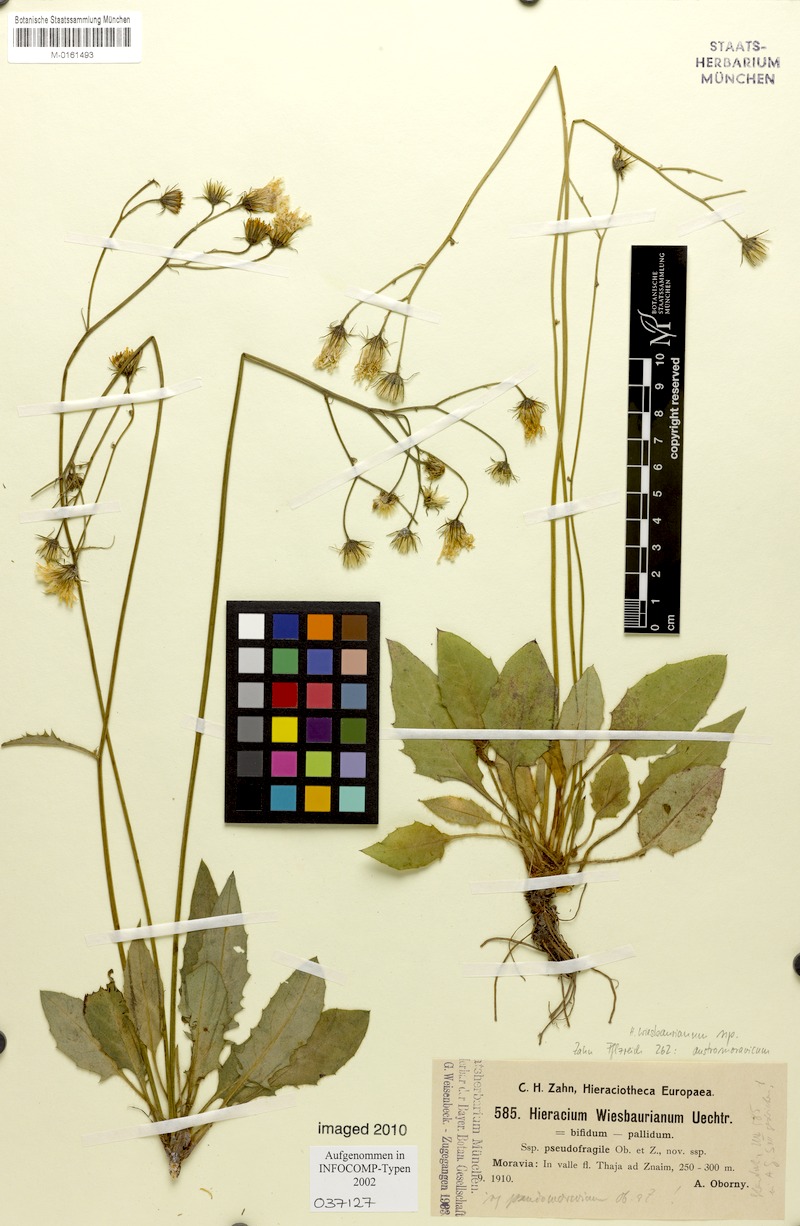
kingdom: Plantae
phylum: Tracheophyta
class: Magnoliopsida
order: Asterales
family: Asteraceae
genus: Hieracium
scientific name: Hieracium hypochoeroides
